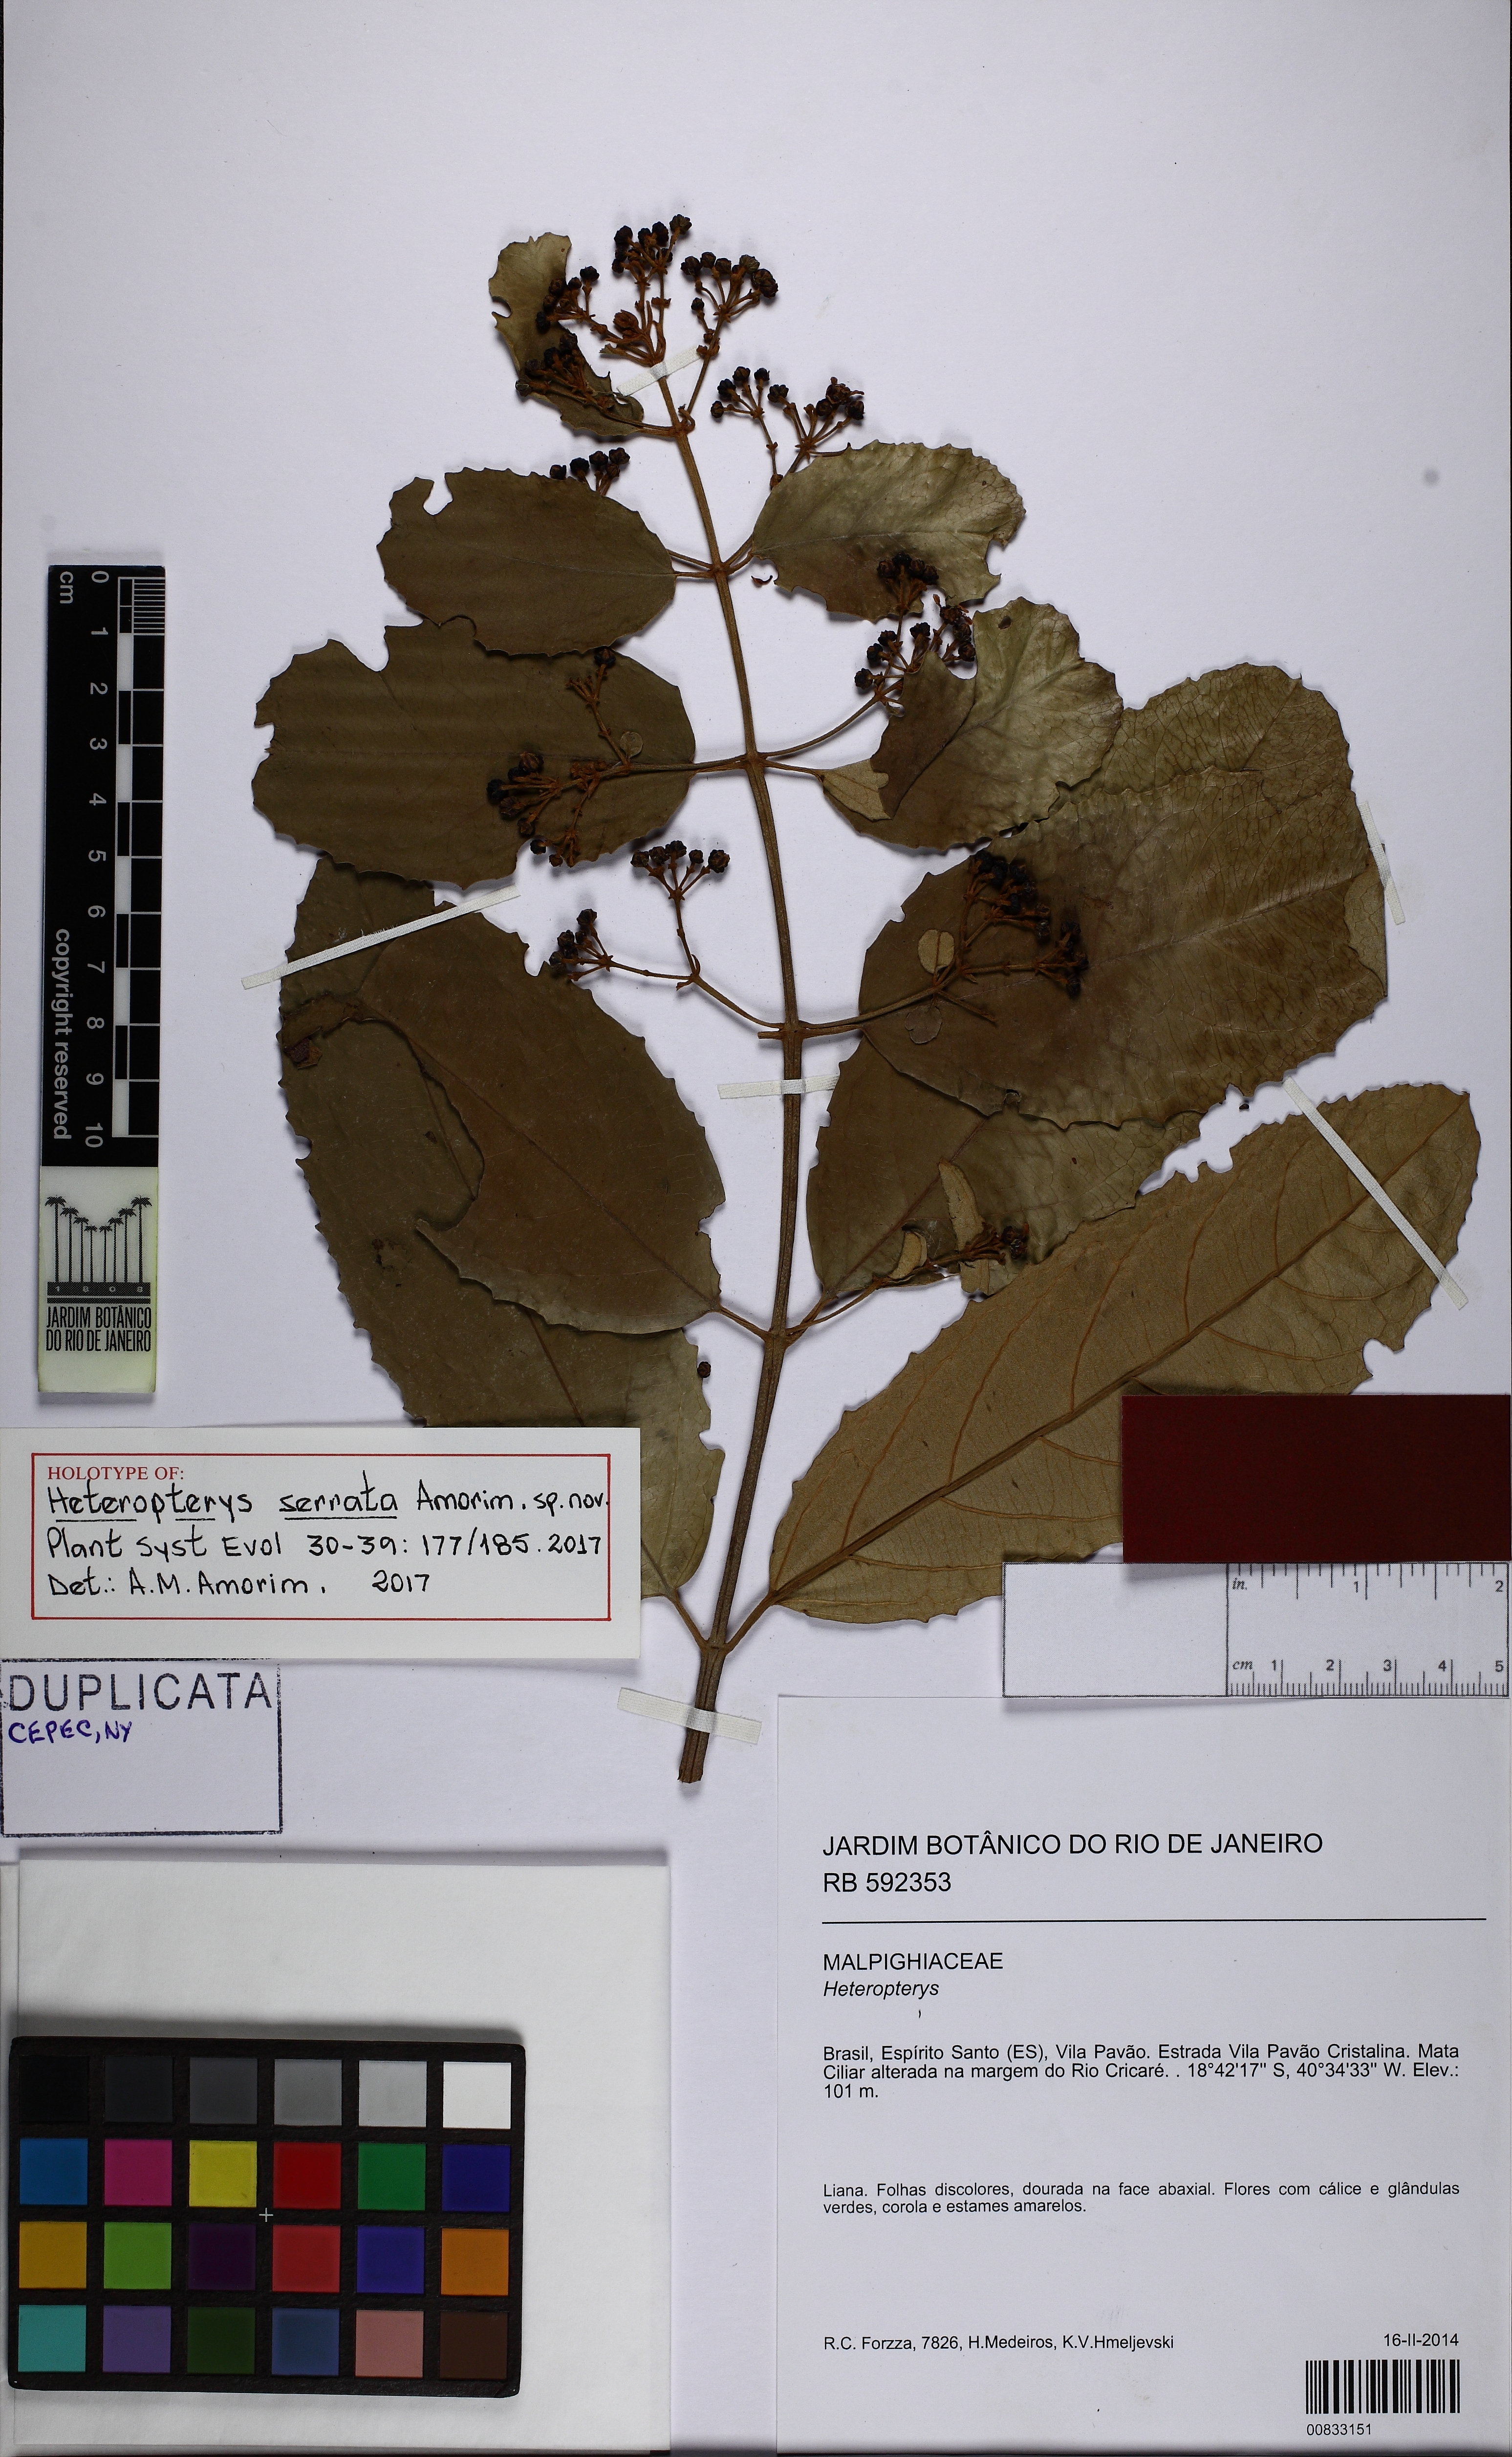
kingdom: Plantae
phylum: Tracheophyta
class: Magnoliopsida
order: Malpighiales
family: Malpighiaceae
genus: Heteropterys
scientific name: Heteropterys serrata
